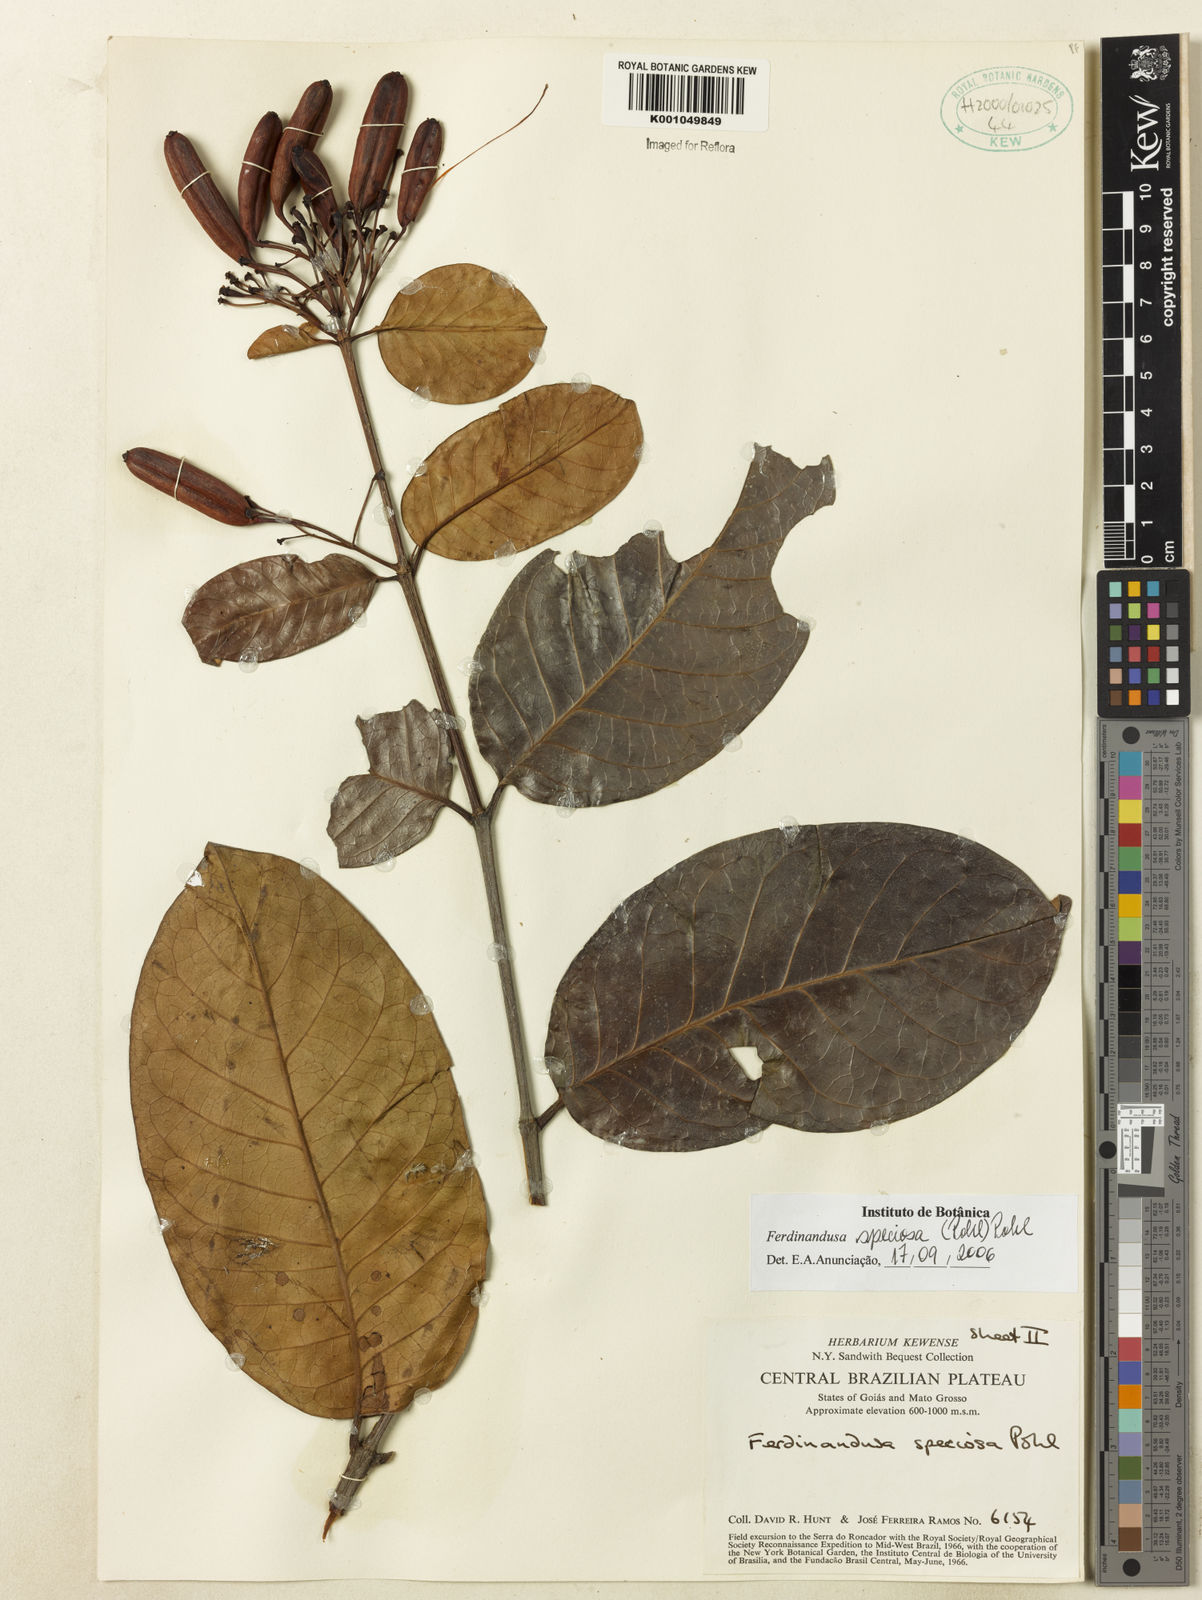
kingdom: Plantae
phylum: Tracheophyta
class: Magnoliopsida
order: Gentianales
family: Rubiaceae
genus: Ferdinandusa
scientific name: Ferdinandusa speciosa
